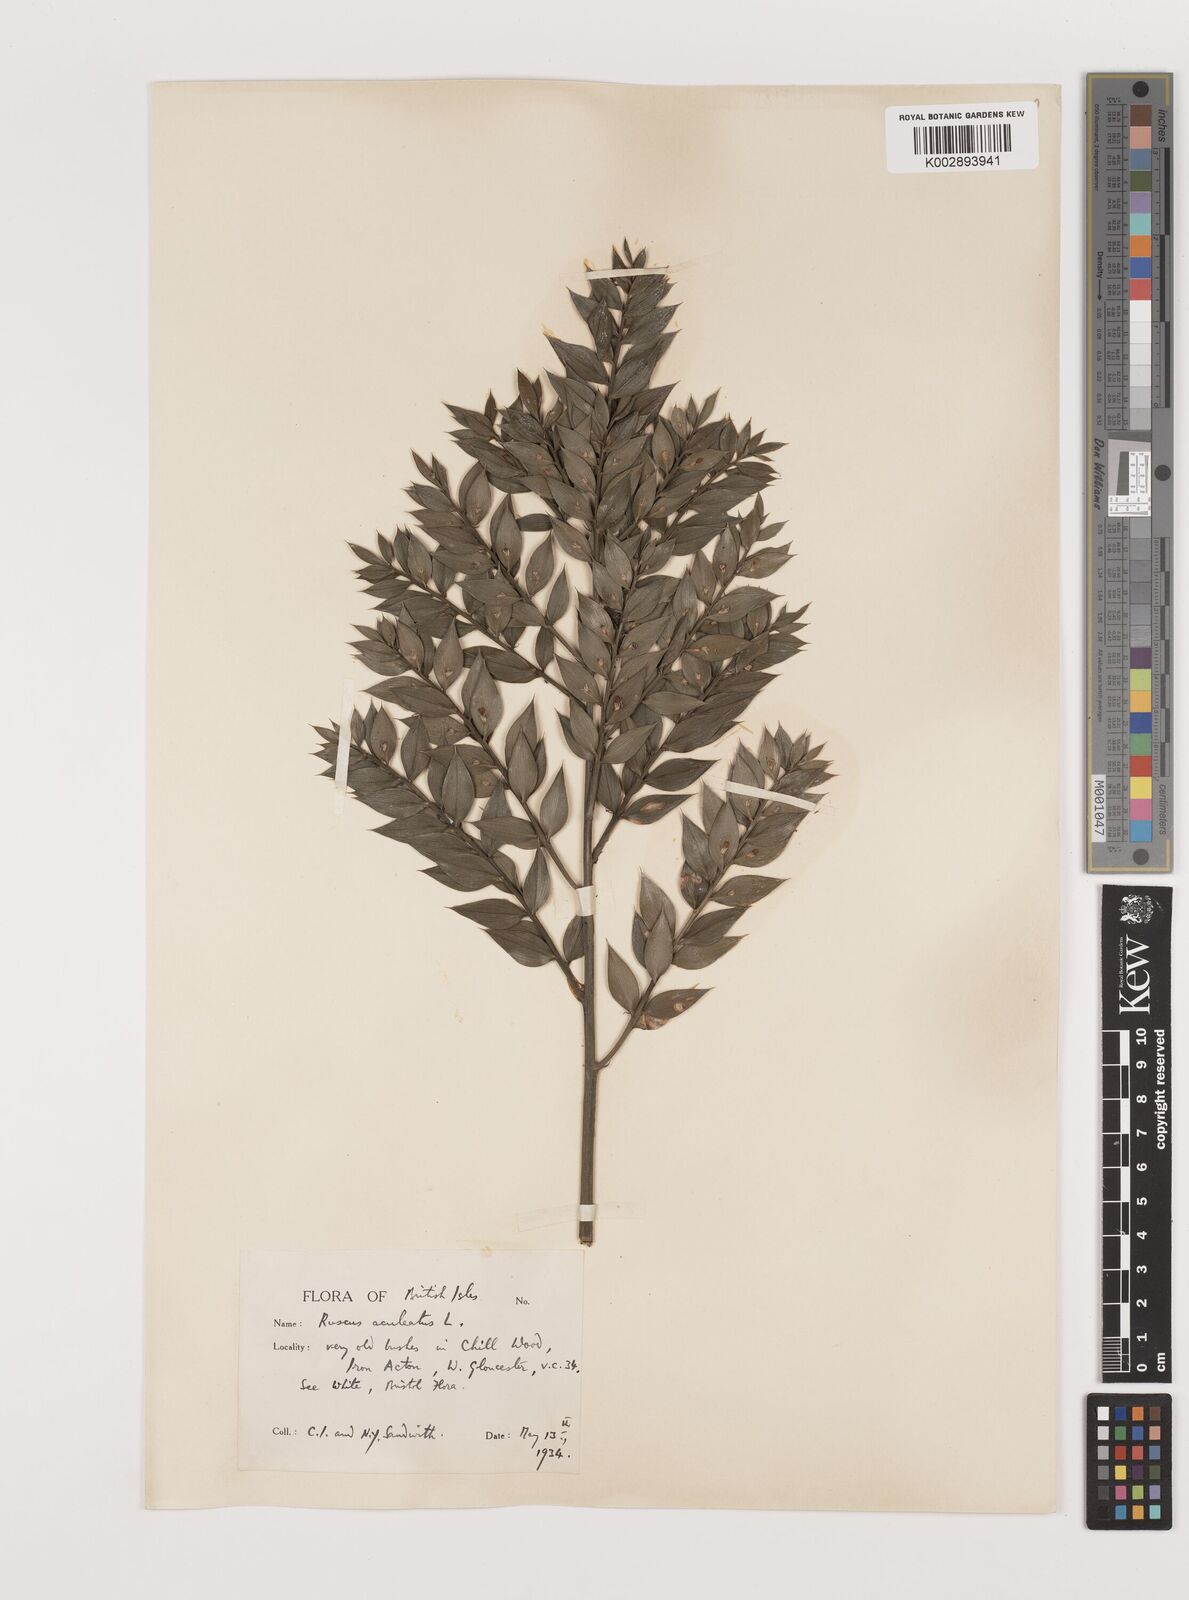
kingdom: Plantae
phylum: Tracheophyta
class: Liliopsida
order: Asparagales
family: Asparagaceae
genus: Ruscus
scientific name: Ruscus aculeatus
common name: Butcher's-broom
